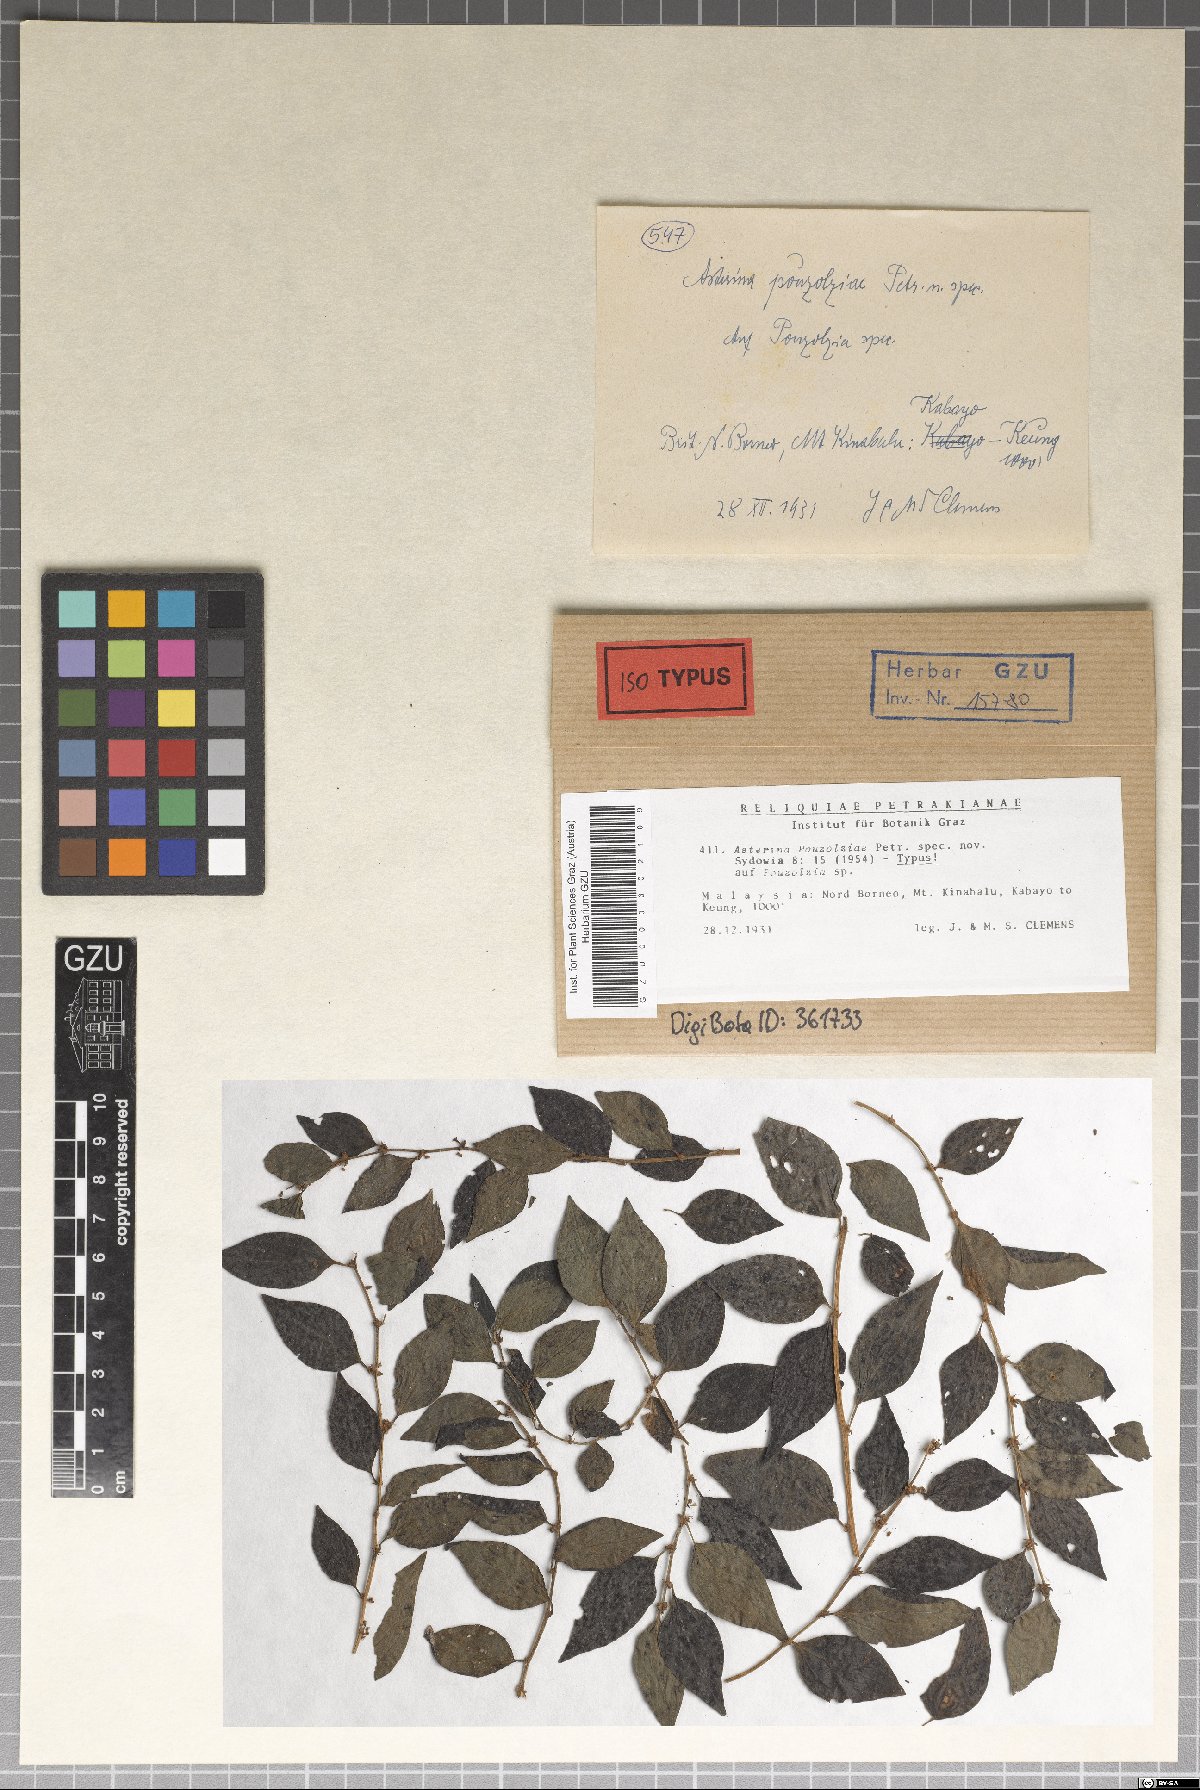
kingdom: Fungi
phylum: Ascomycota
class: Dothideomycetes
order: Asterinales
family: Asterinaceae
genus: Asterina
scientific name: Asterina pouzolziae
